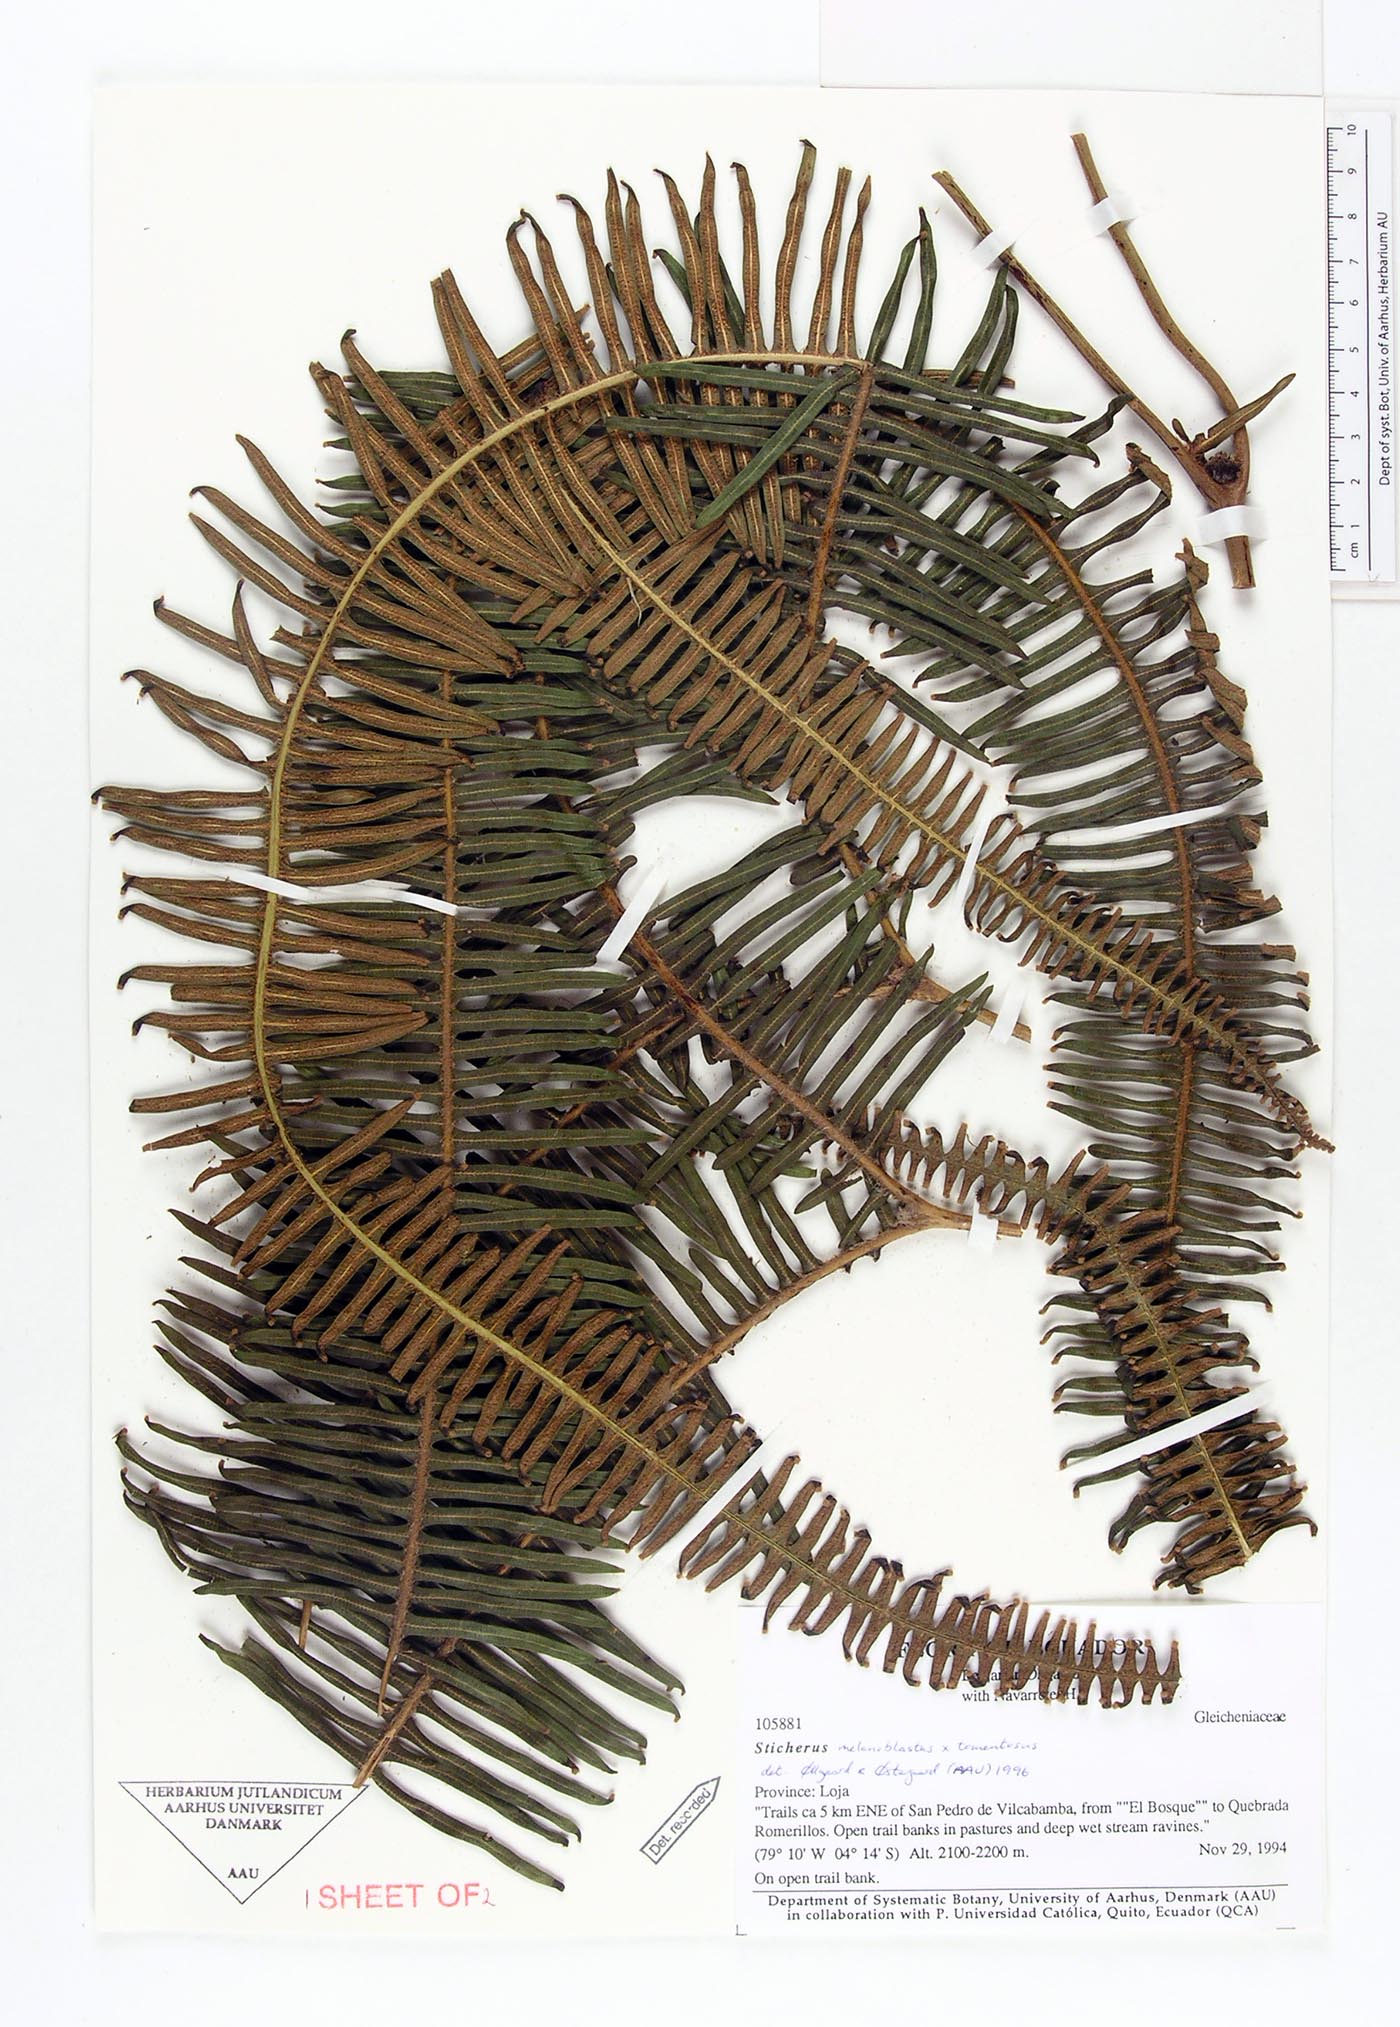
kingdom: Plantae
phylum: Tracheophyta
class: Polypodiopsida
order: Gleicheniales
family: Gleicheniaceae
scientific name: Gleicheniaceae
